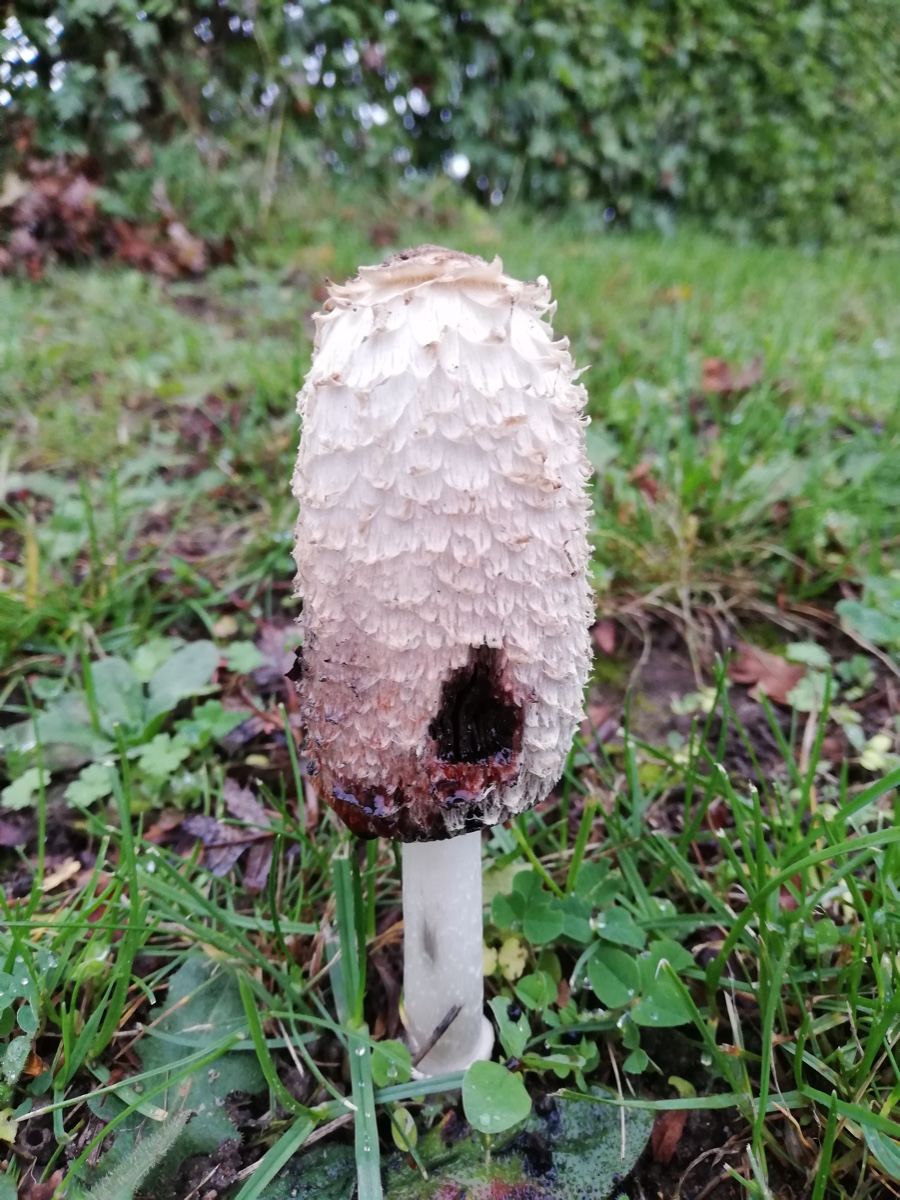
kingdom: Fungi
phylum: Basidiomycota
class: Agaricomycetes
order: Agaricales
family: Agaricaceae
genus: Coprinus
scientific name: Coprinus comatus
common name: stor parykhat
